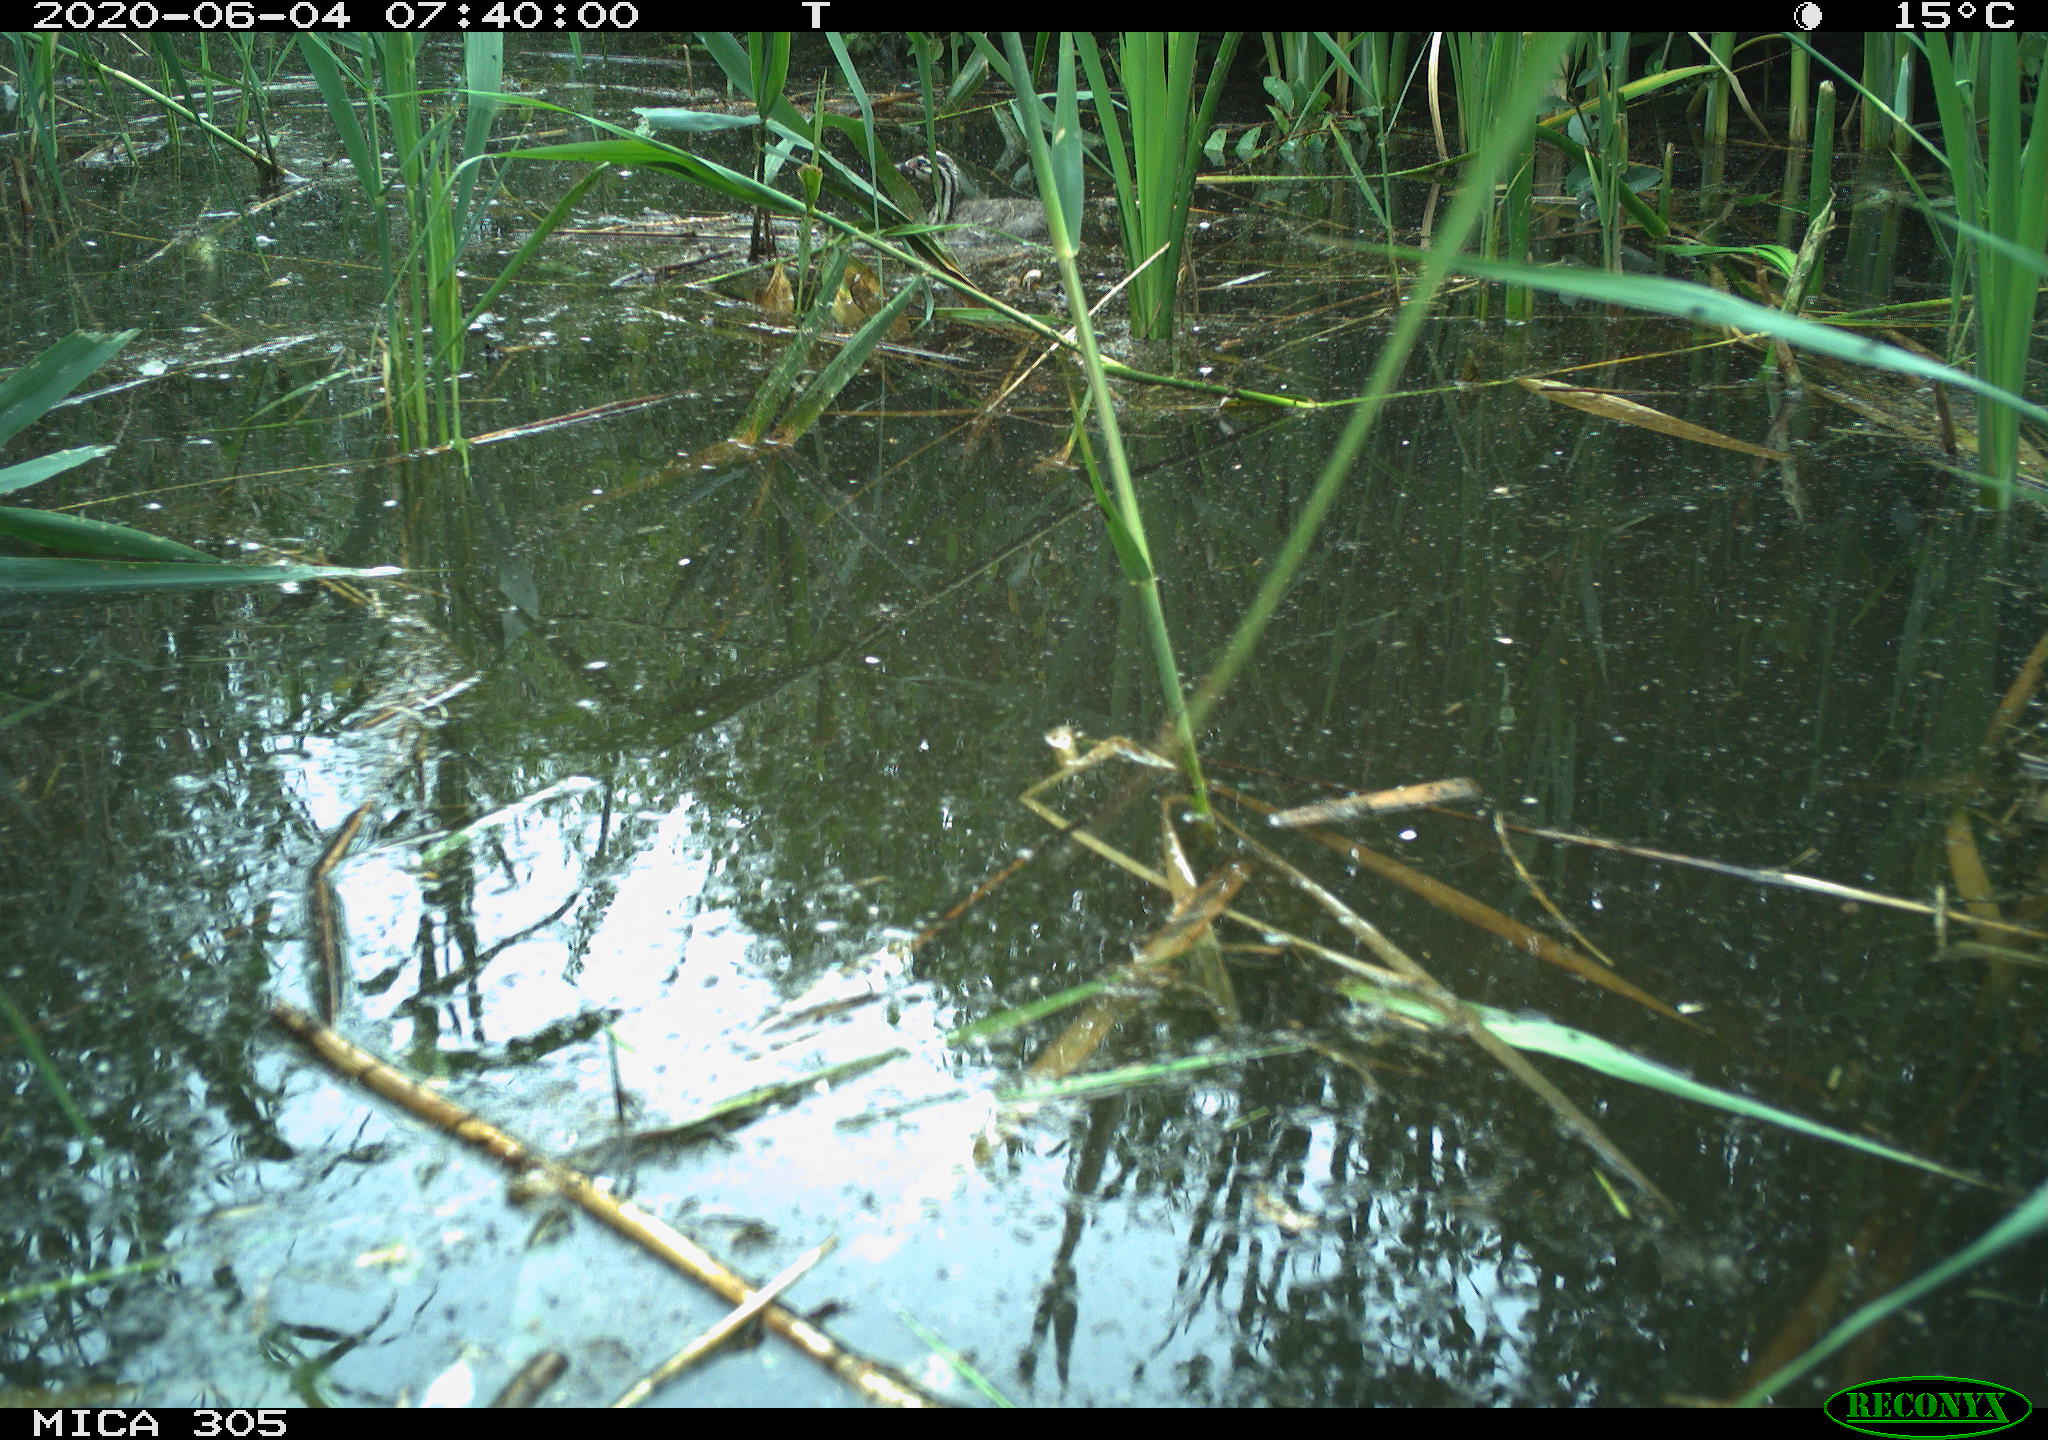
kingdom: Animalia
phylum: Chordata
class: Aves
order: Podicipediformes
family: Podicipedidae
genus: Podiceps
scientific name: Podiceps cristatus
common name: Great crested grebe
